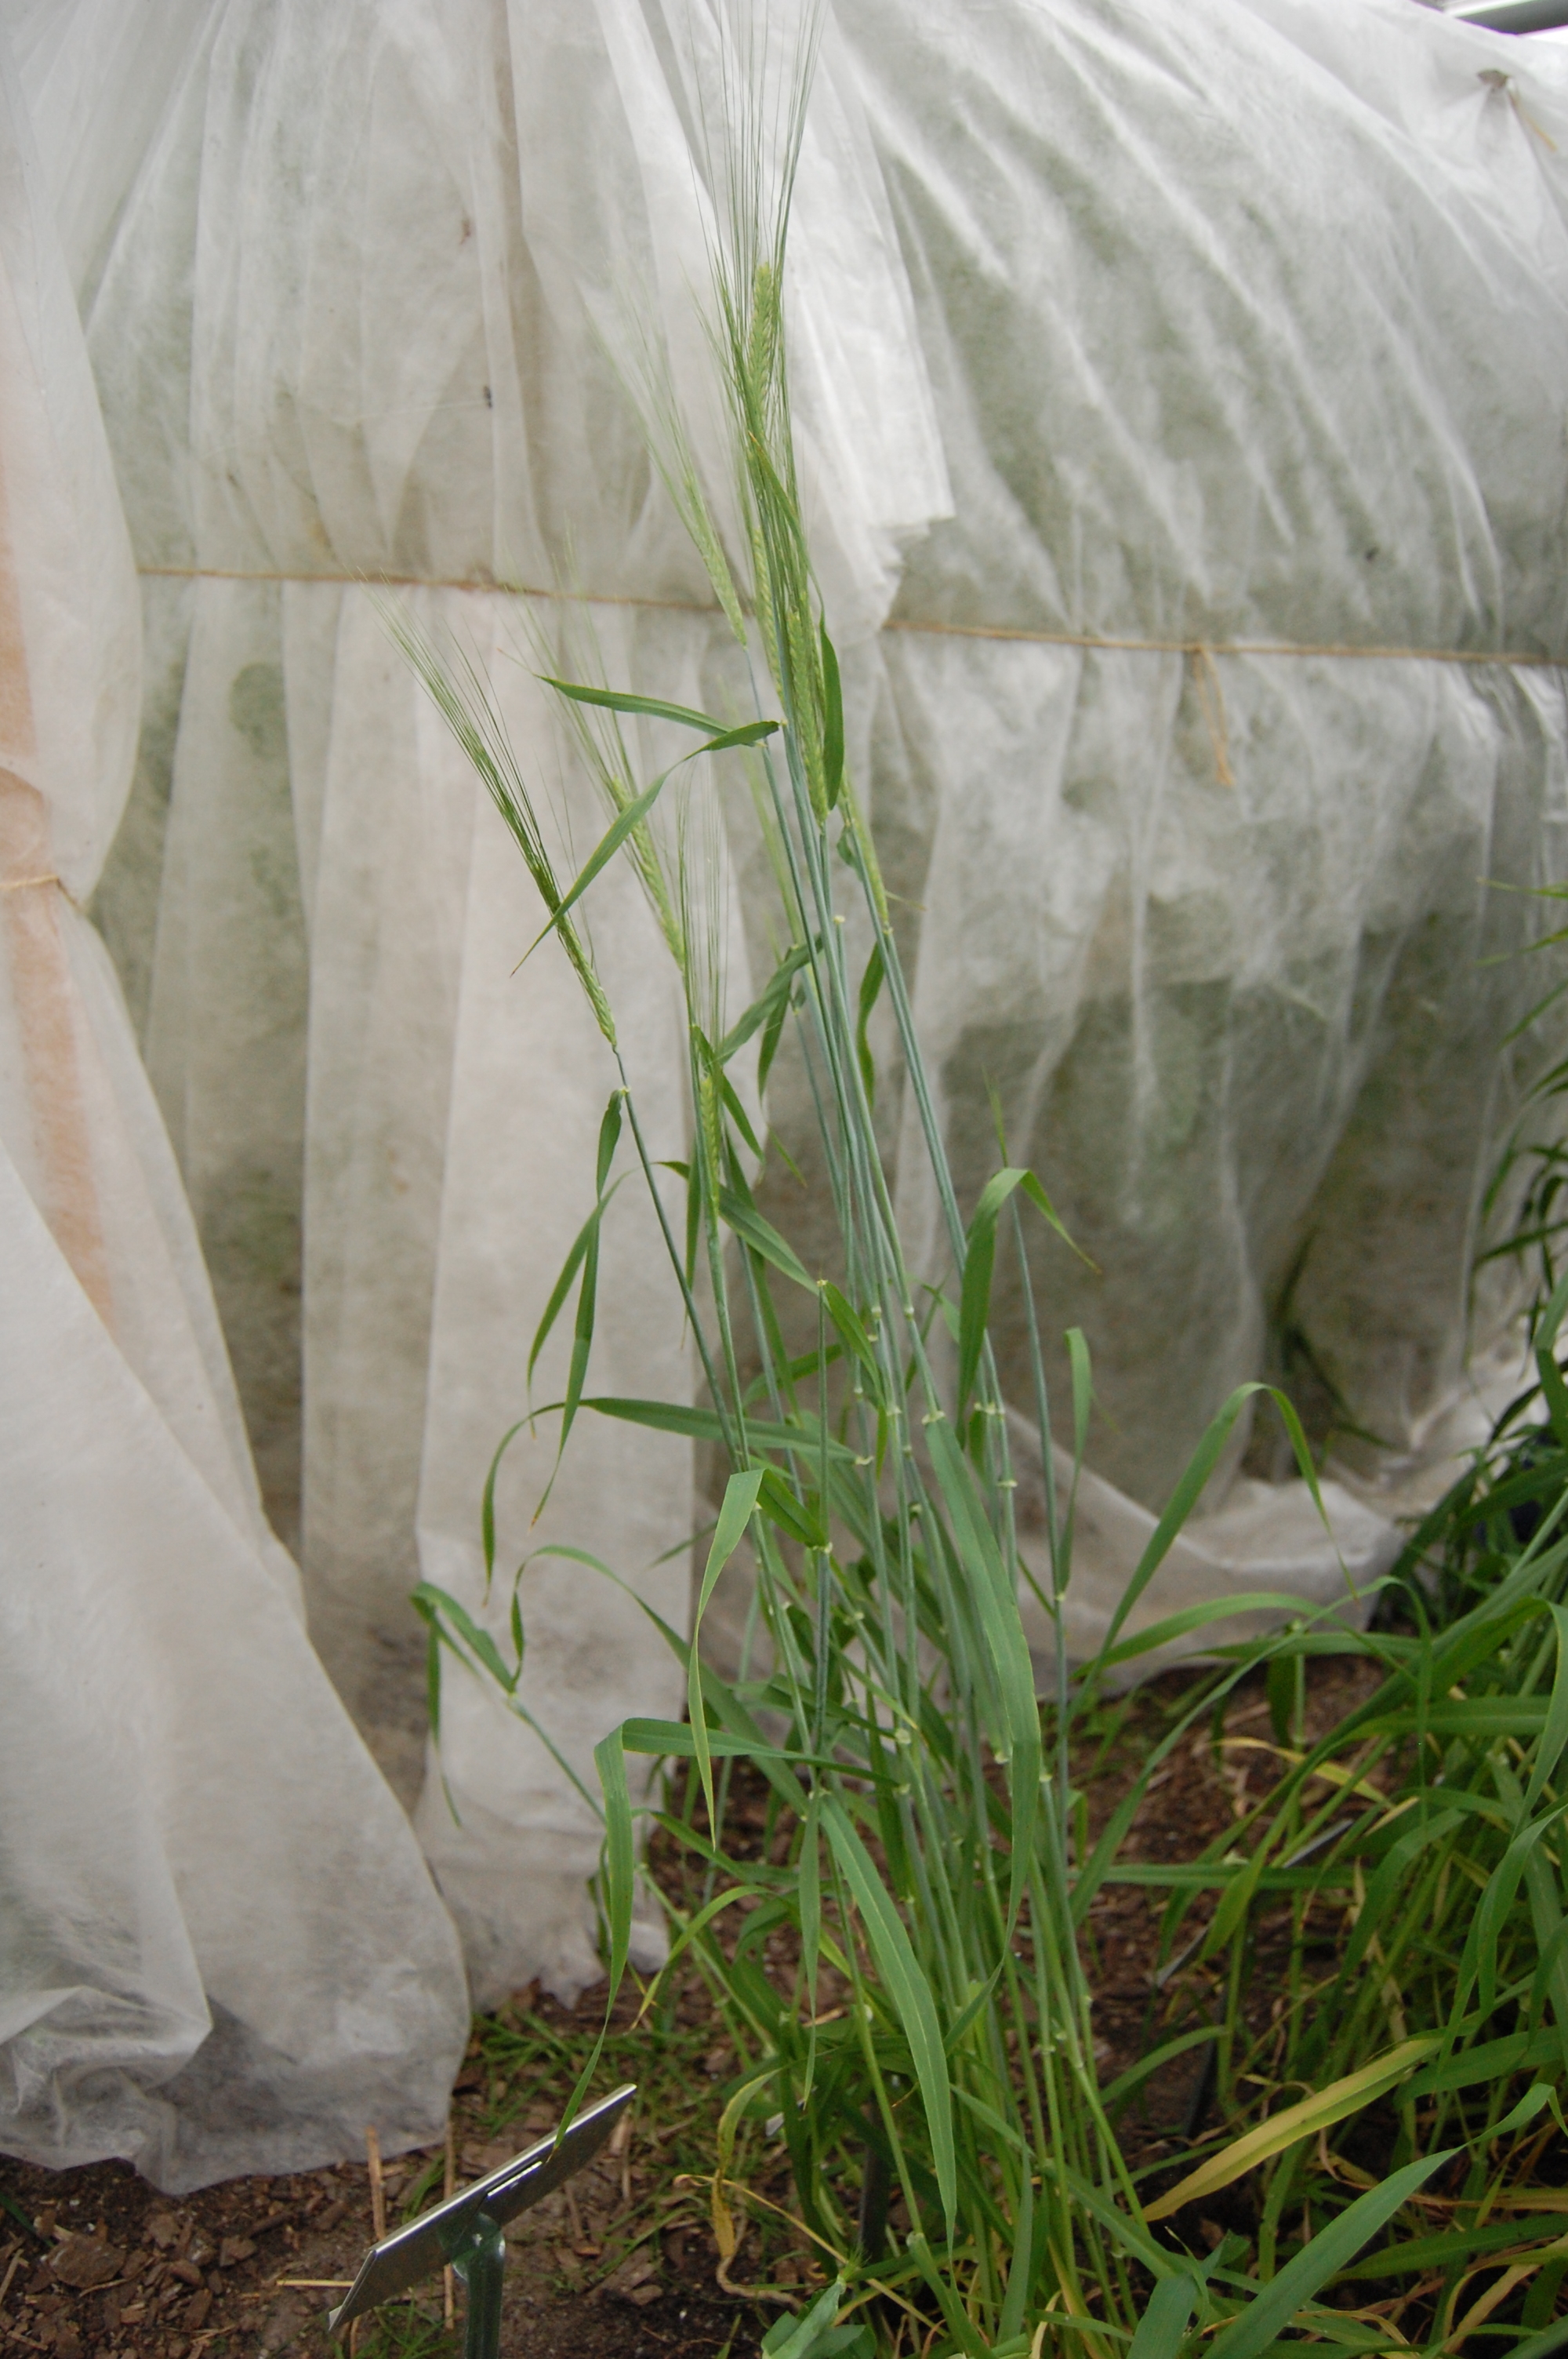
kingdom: Plantae
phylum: Tracheophyta
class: Liliopsida
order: Poales
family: Poaceae
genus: Hordeum
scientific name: Hordeum vulgare
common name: Common barley
